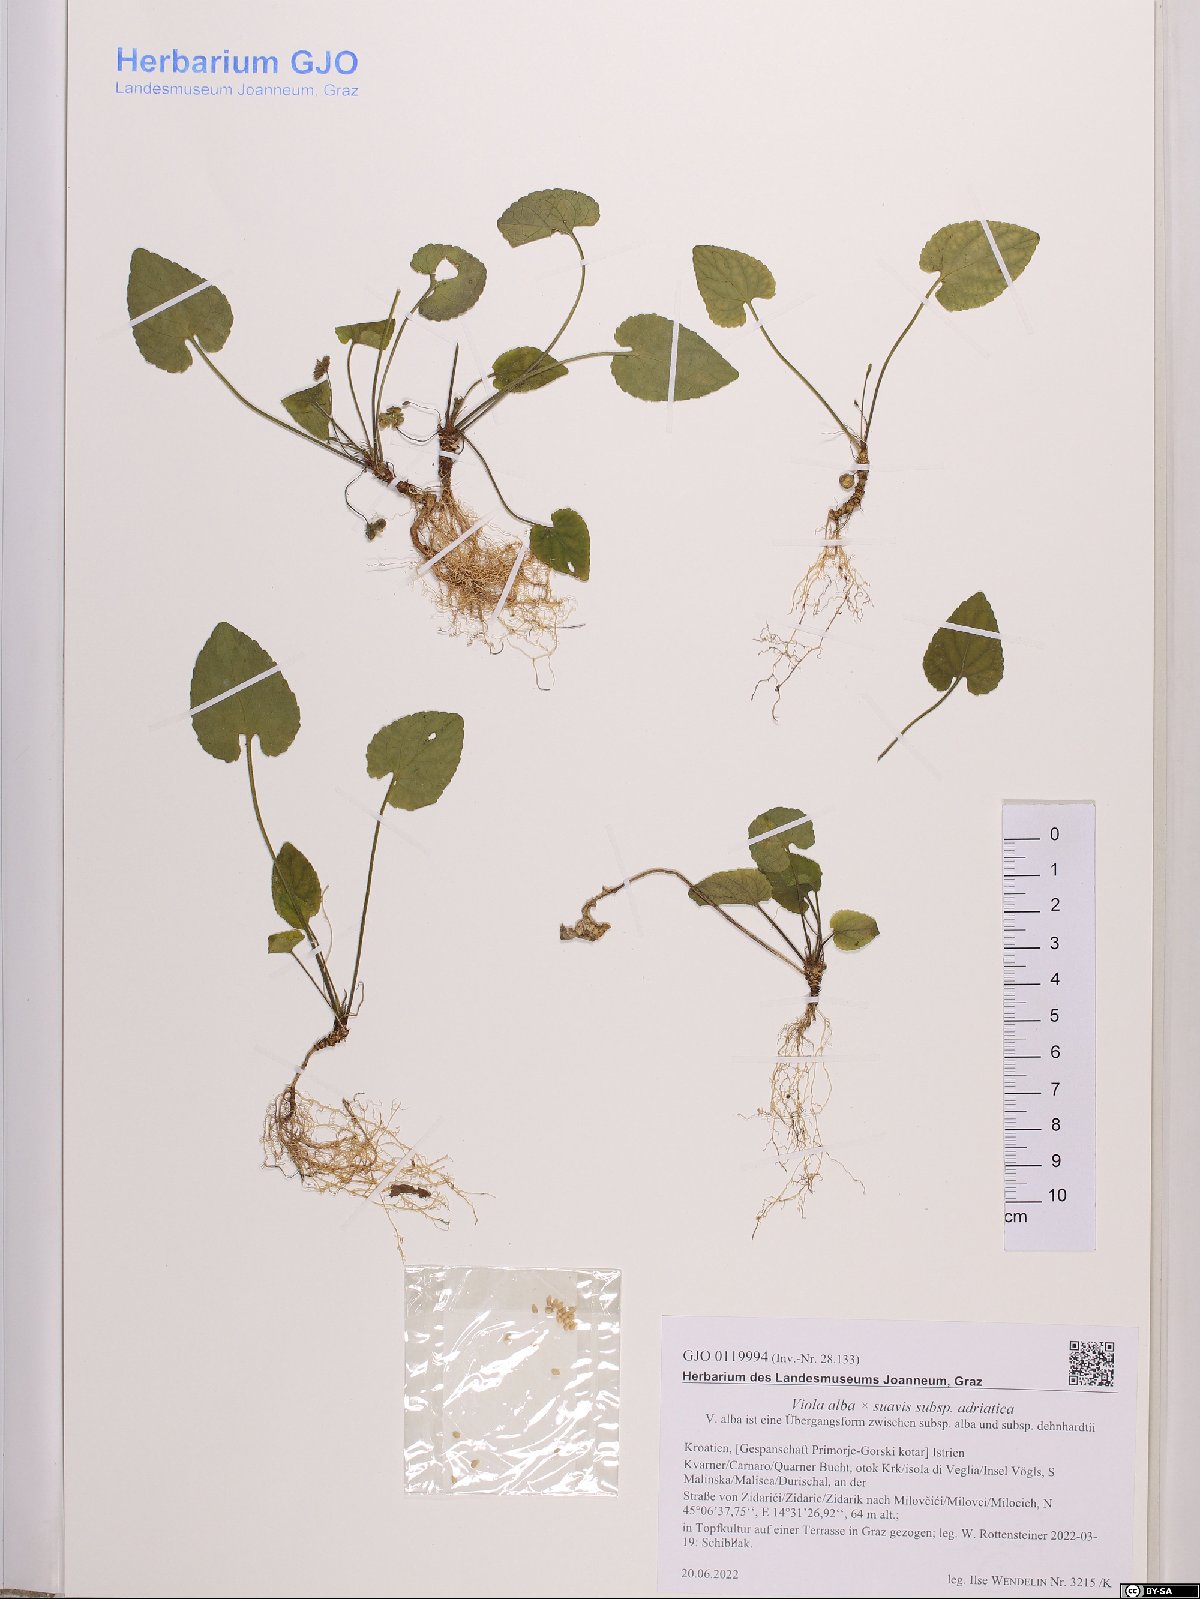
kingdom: Plantae
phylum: Tracheophyta
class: Magnoliopsida
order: Malpighiales
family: Violaceae
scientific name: Violaceae
